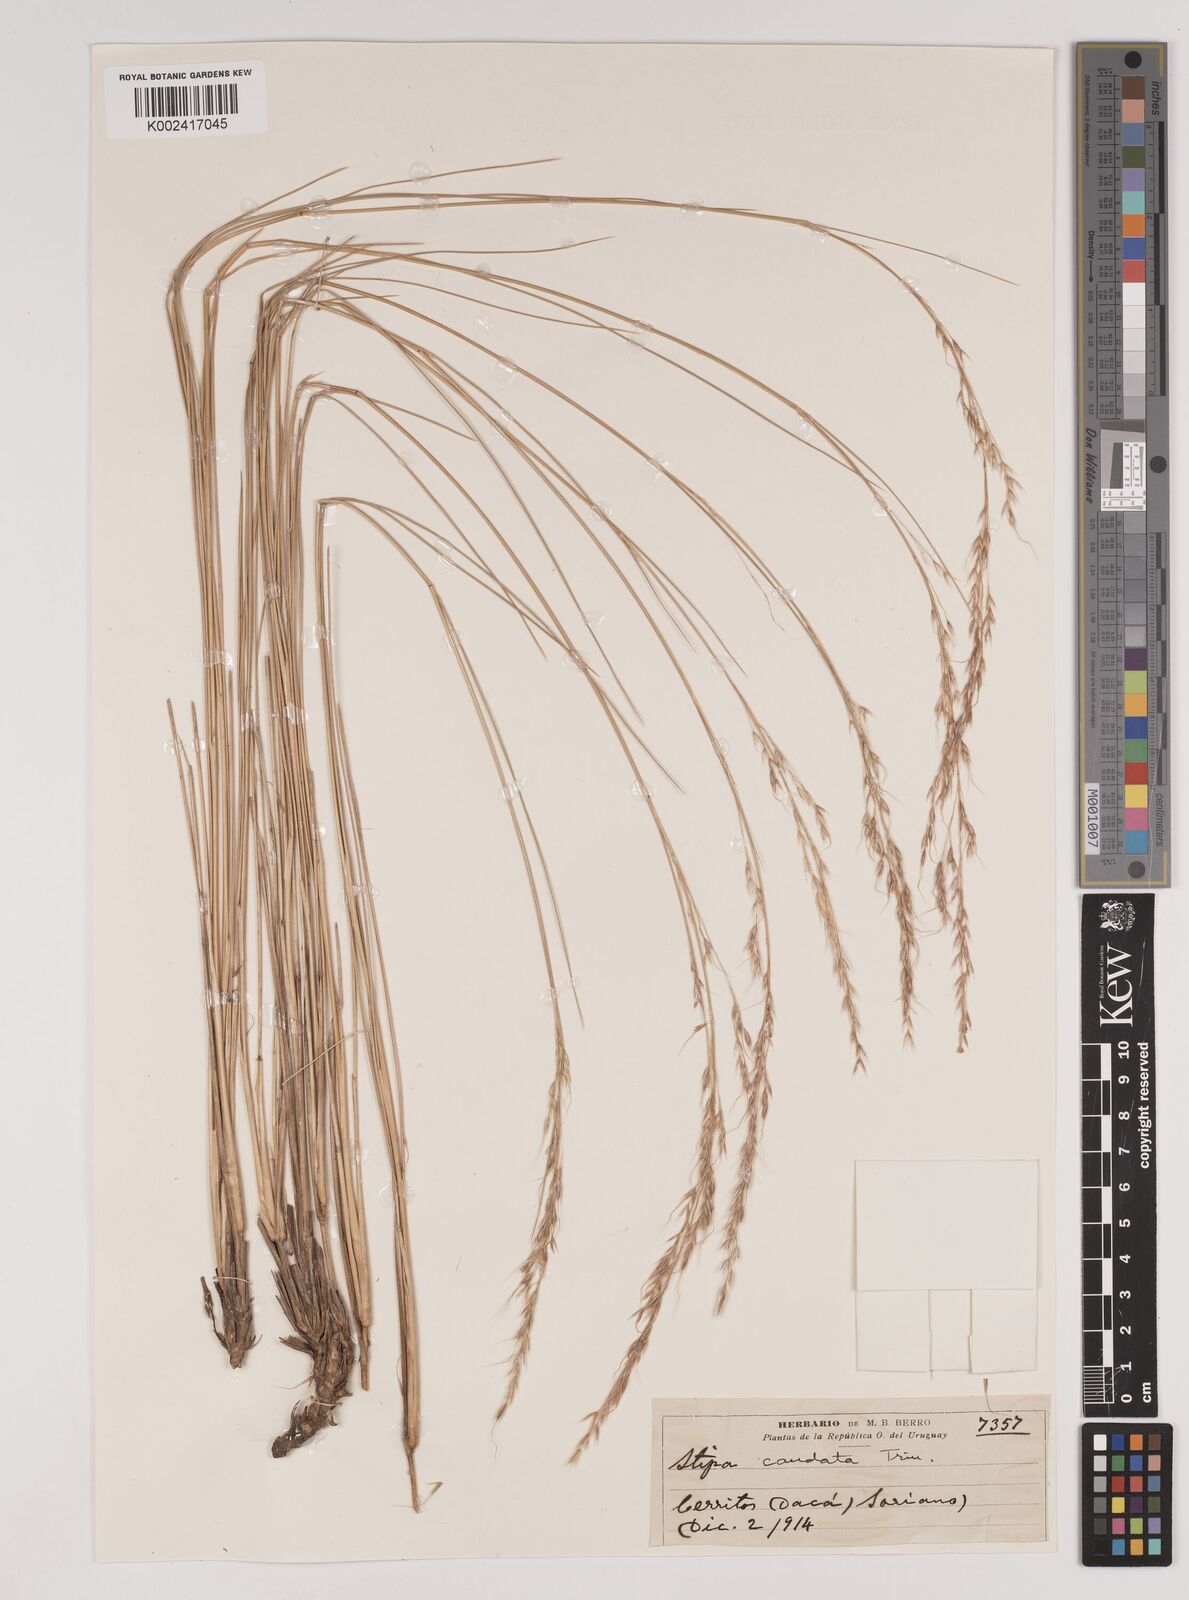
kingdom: Plantae
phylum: Tracheophyta
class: Liliopsida
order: Poales
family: Poaceae
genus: Amelichloa
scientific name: Amelichloa caudata
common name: Chilean ricegrass
